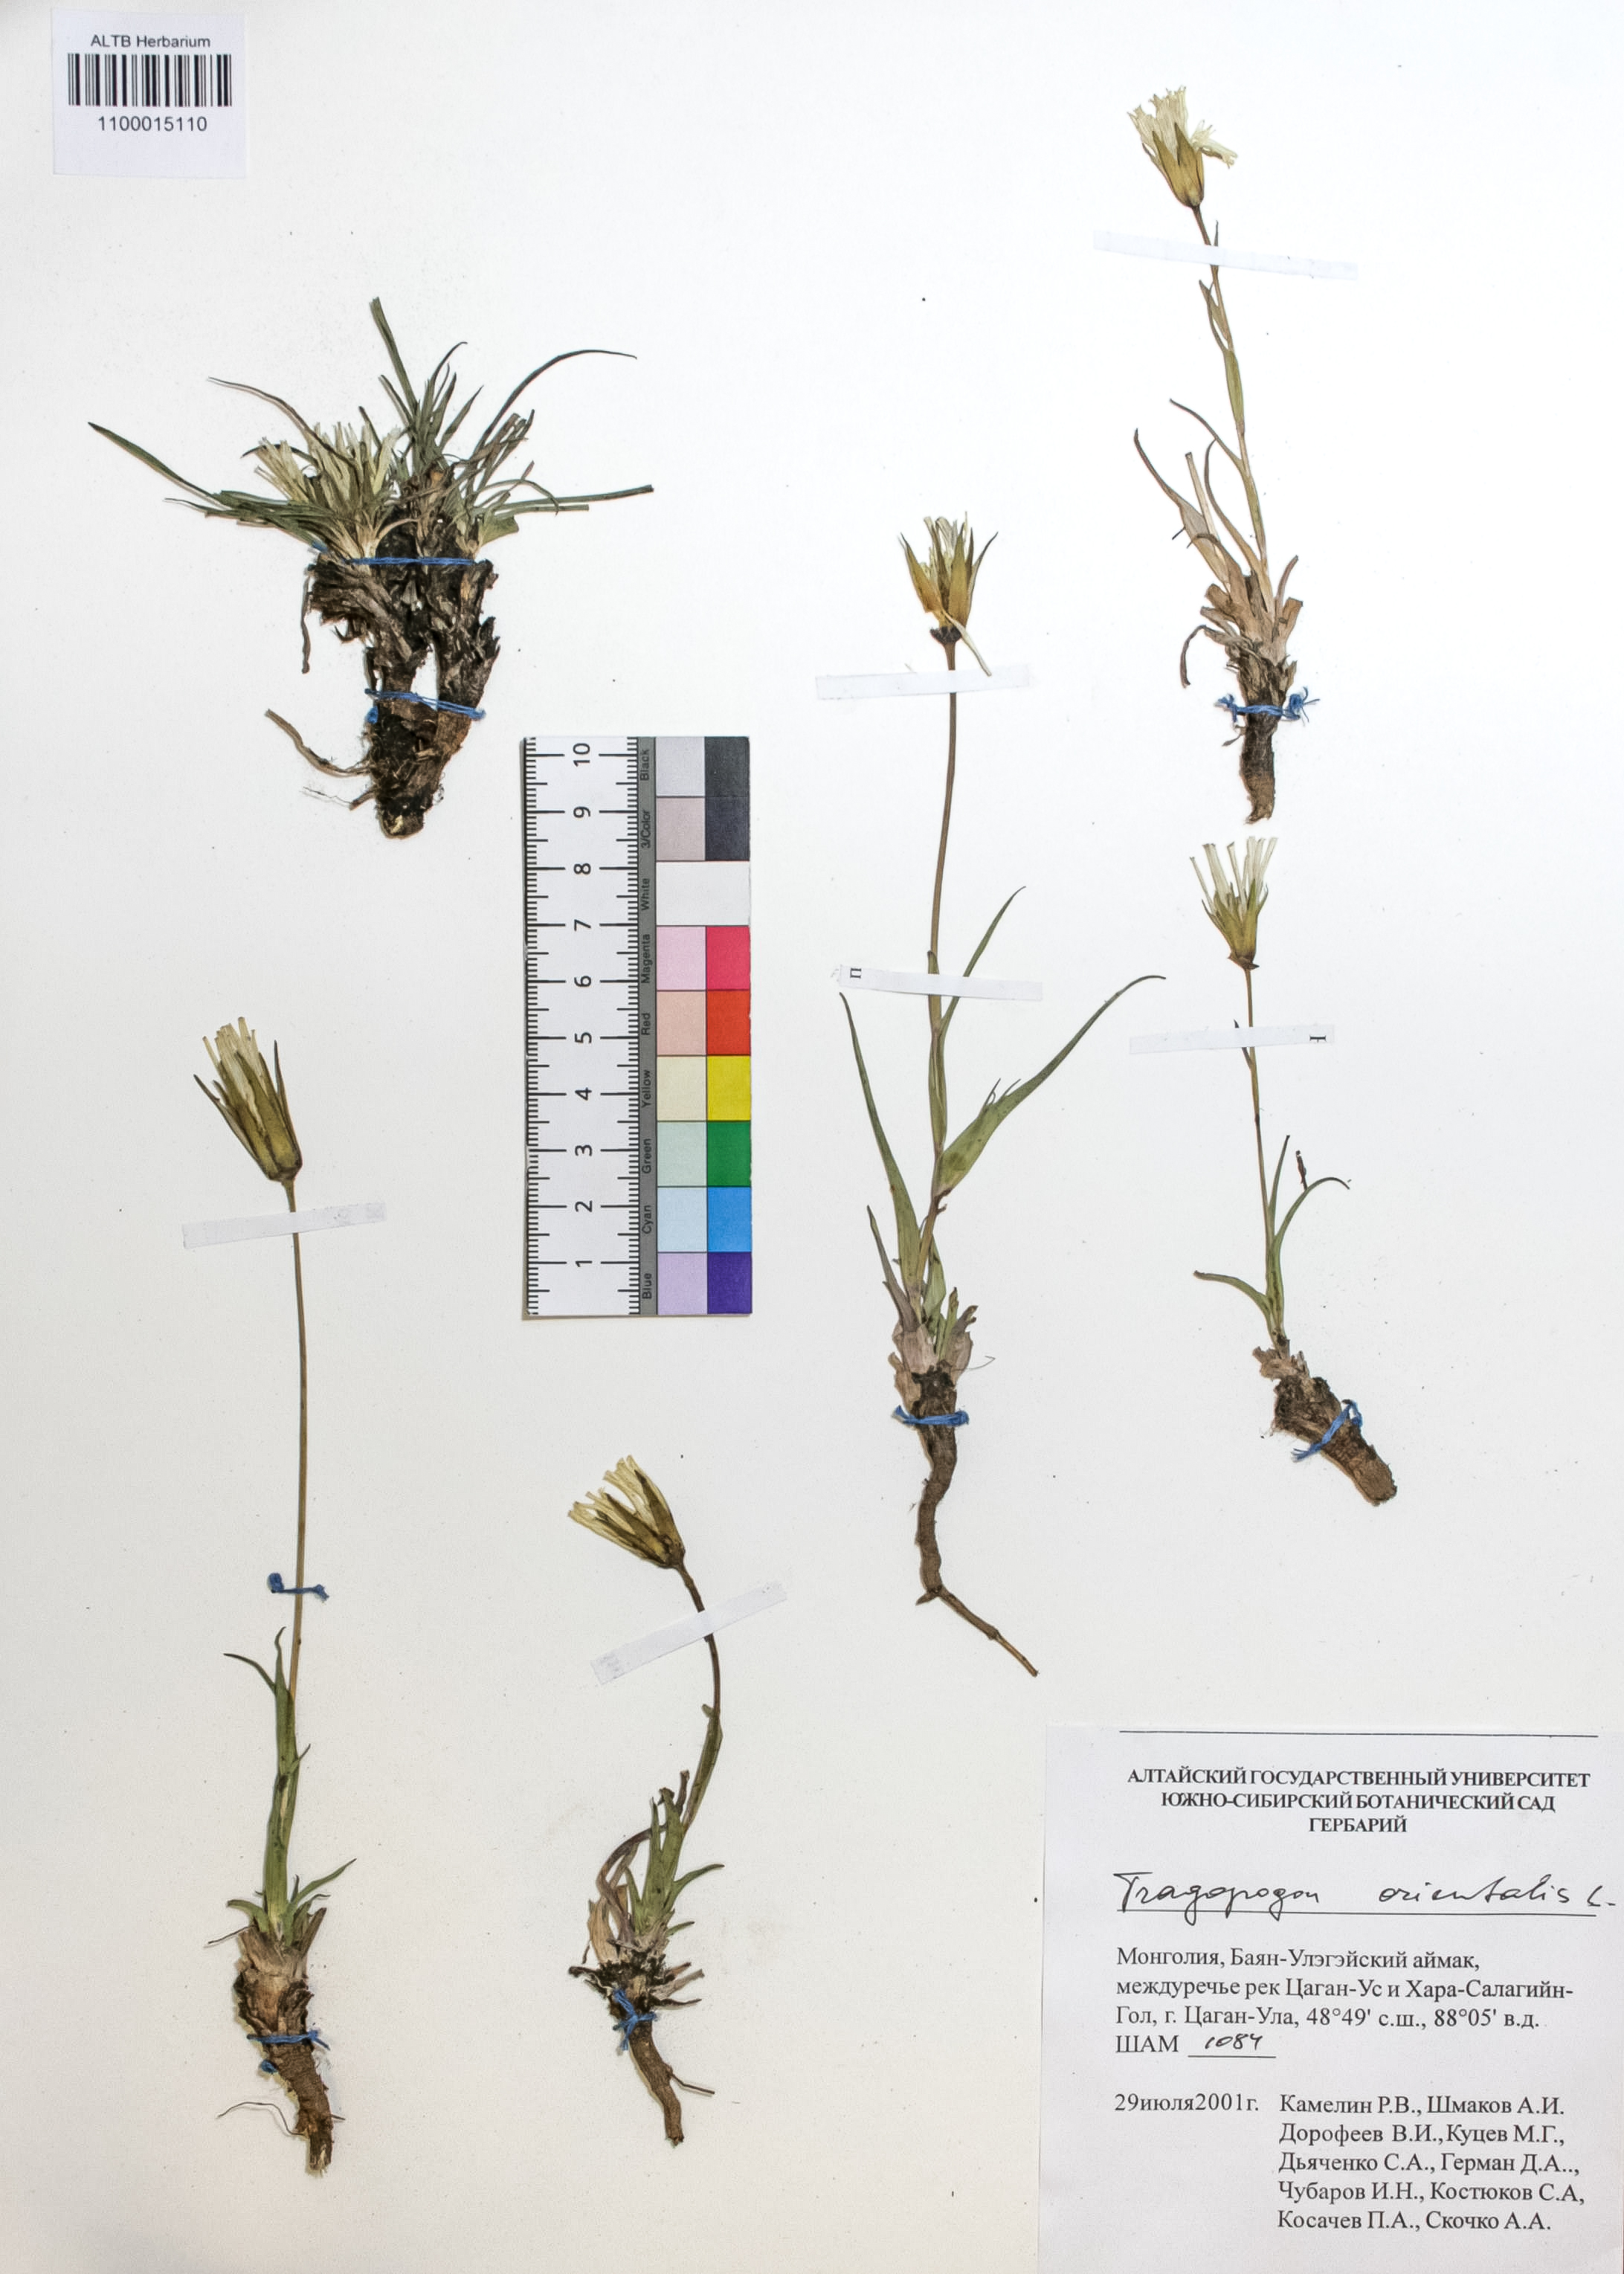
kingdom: Plantae
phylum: Tracheophyta
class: Magnoliopsida
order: Asterales
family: Asteraceae
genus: Tragopogon
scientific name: Tragopogon orientalis
